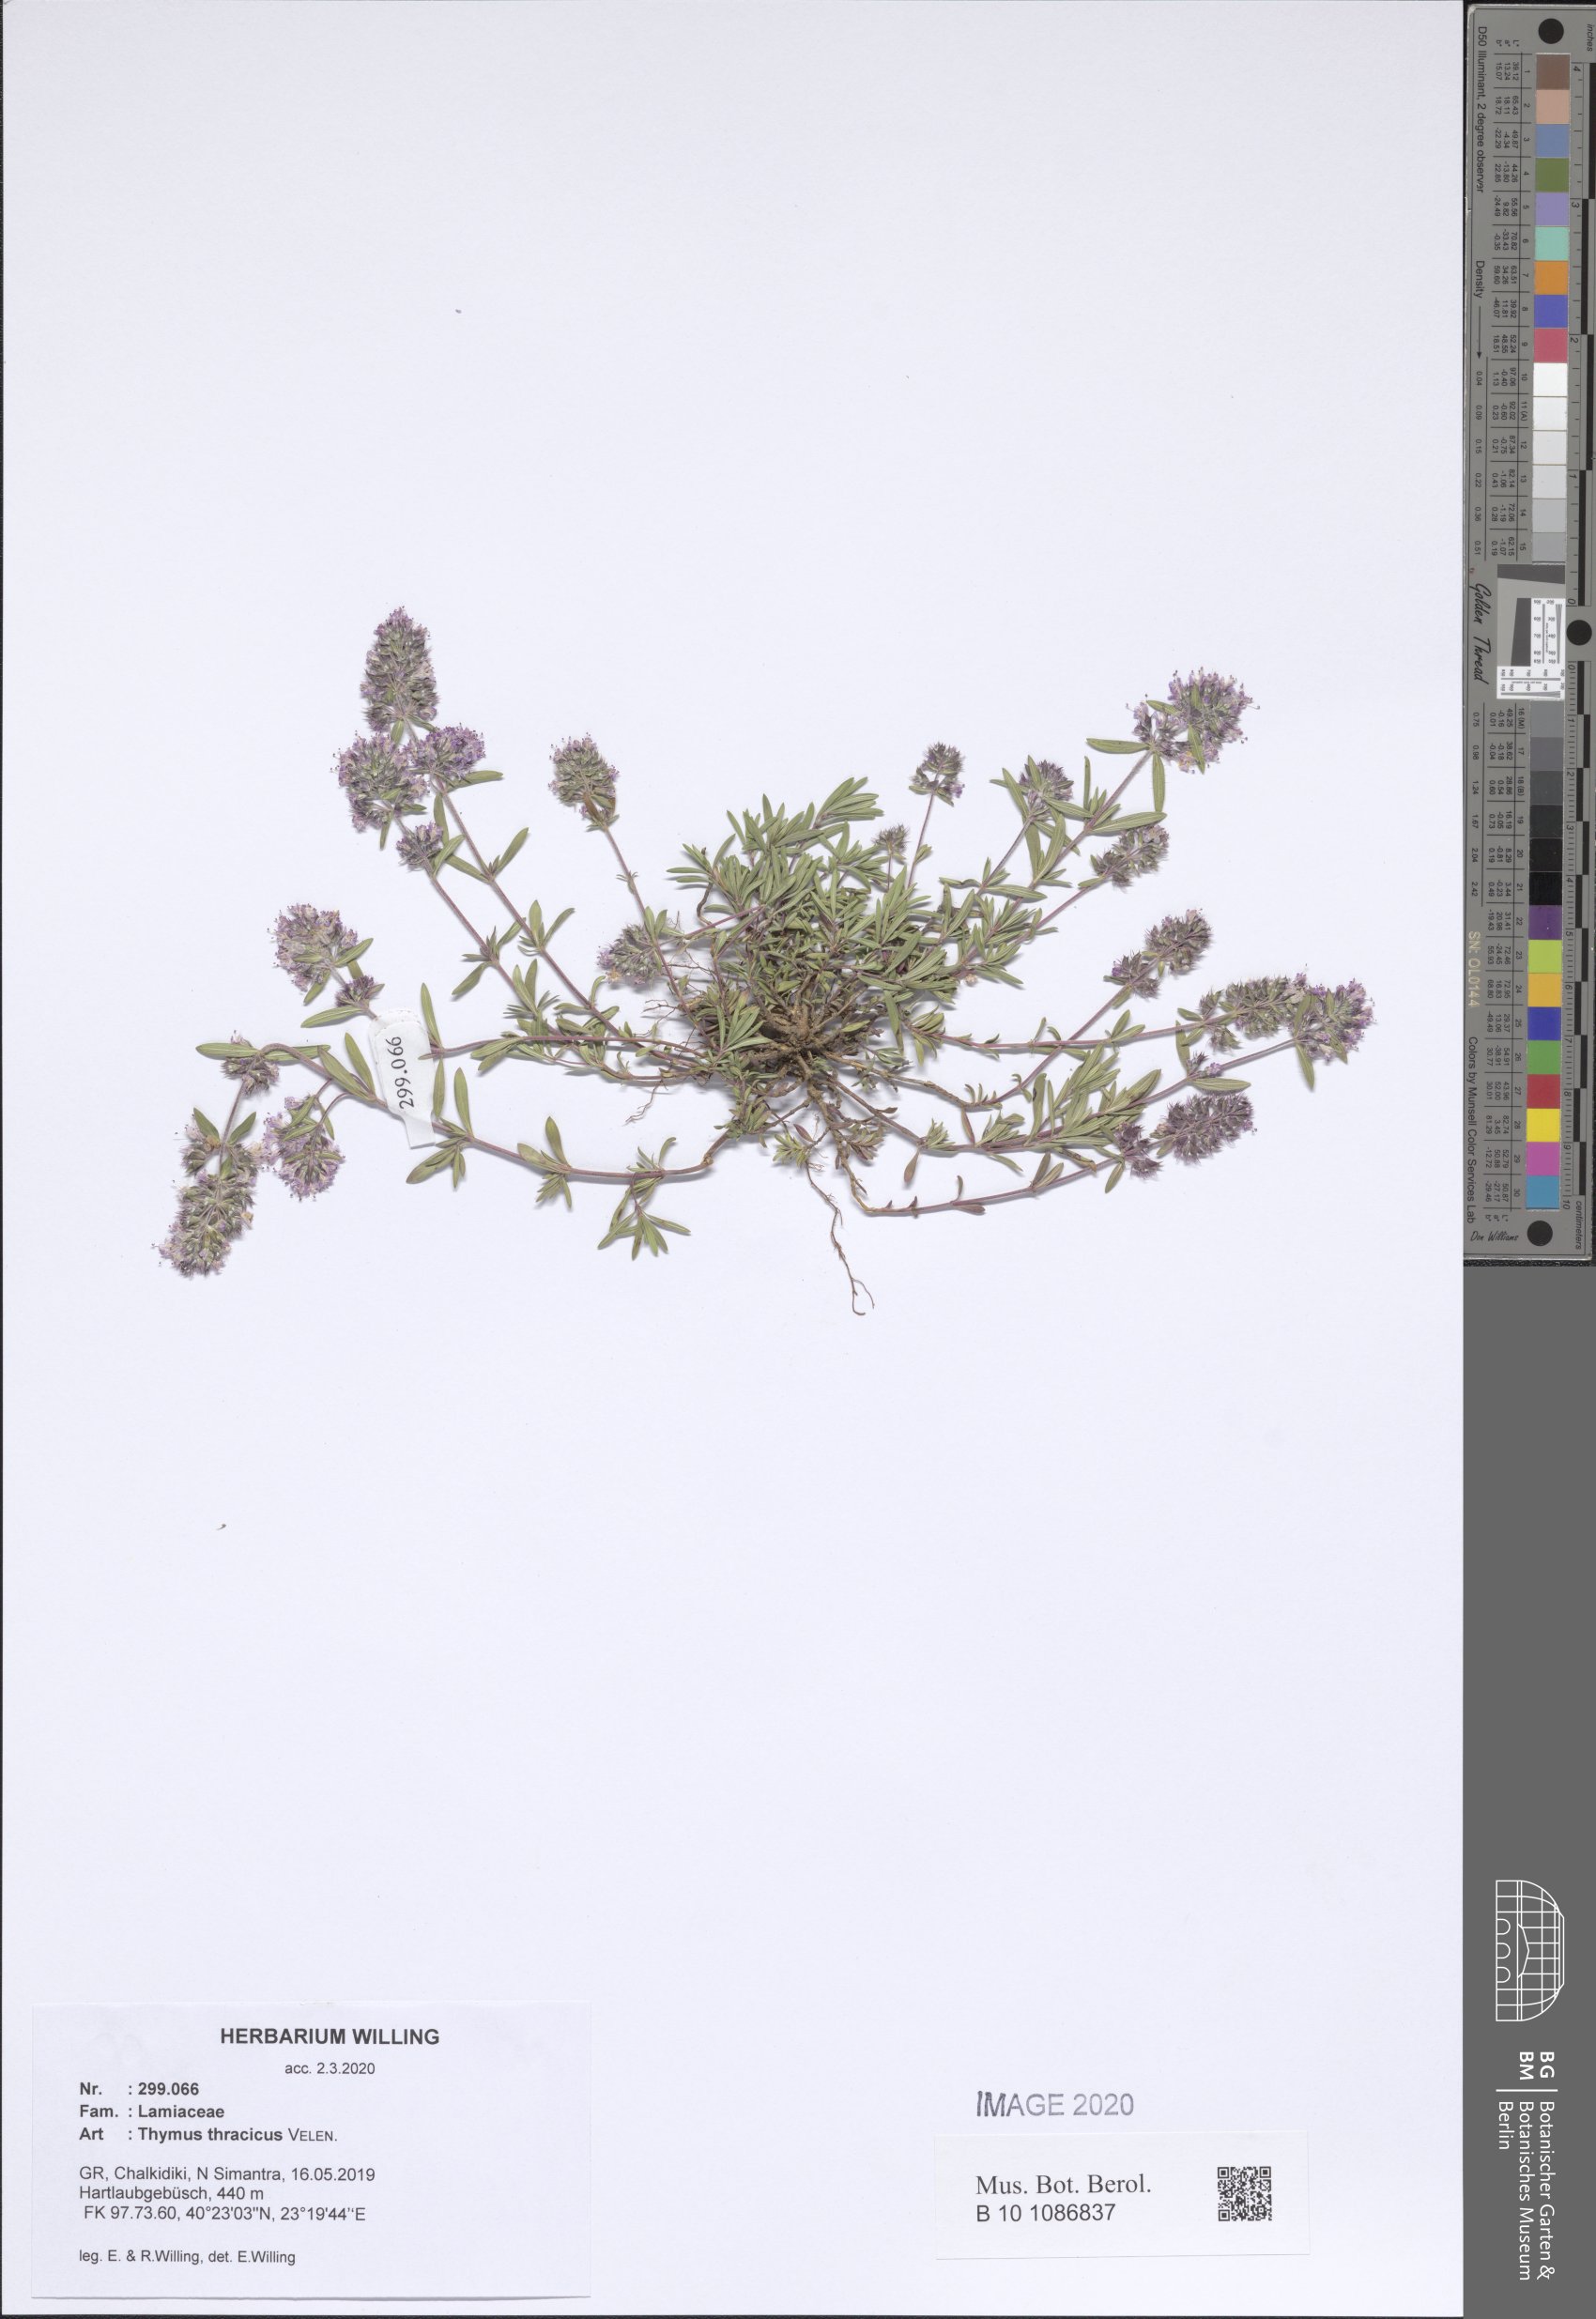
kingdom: Plantae
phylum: Tracheophyta
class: Magnoliopsida
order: Lamiales
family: Lamiaceae
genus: Thymus
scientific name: Thymus longicaulis
